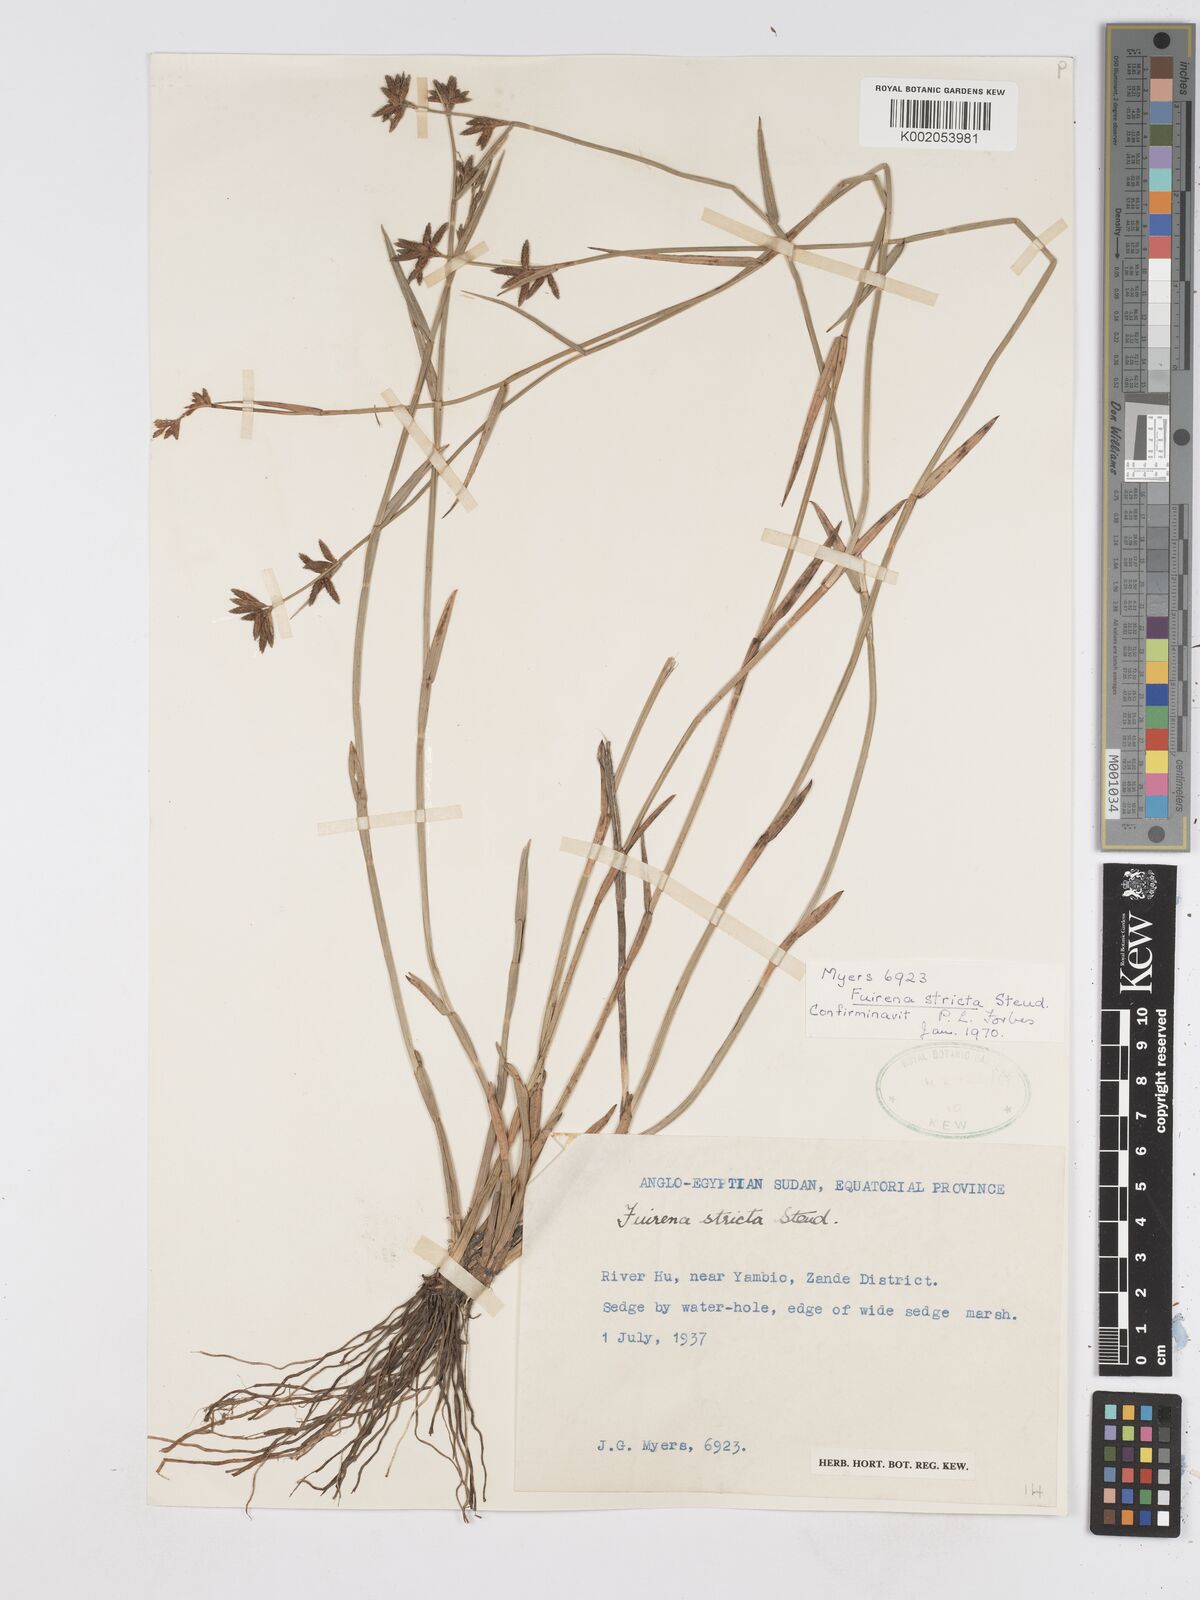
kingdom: Plantae
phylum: Tracheophyta
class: Liliopsida
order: Poales
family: Cyperaceae
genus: Fuirena
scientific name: Fuirena stricta
